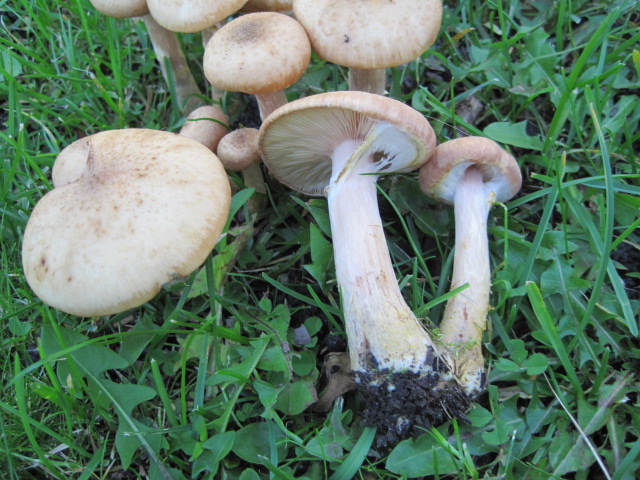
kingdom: Fungi
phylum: Basidiomycota
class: Agaricomycetes
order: Agaricales
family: Physalacriaceae
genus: Armillaria
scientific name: Armillaria lutea
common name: køllestokket honningsvamp
